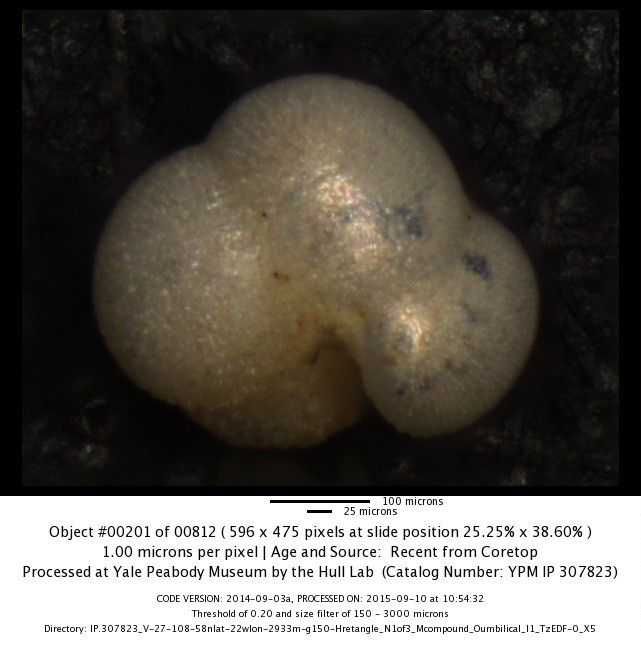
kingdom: Chromista
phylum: Foraminifera
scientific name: Foraminifera
